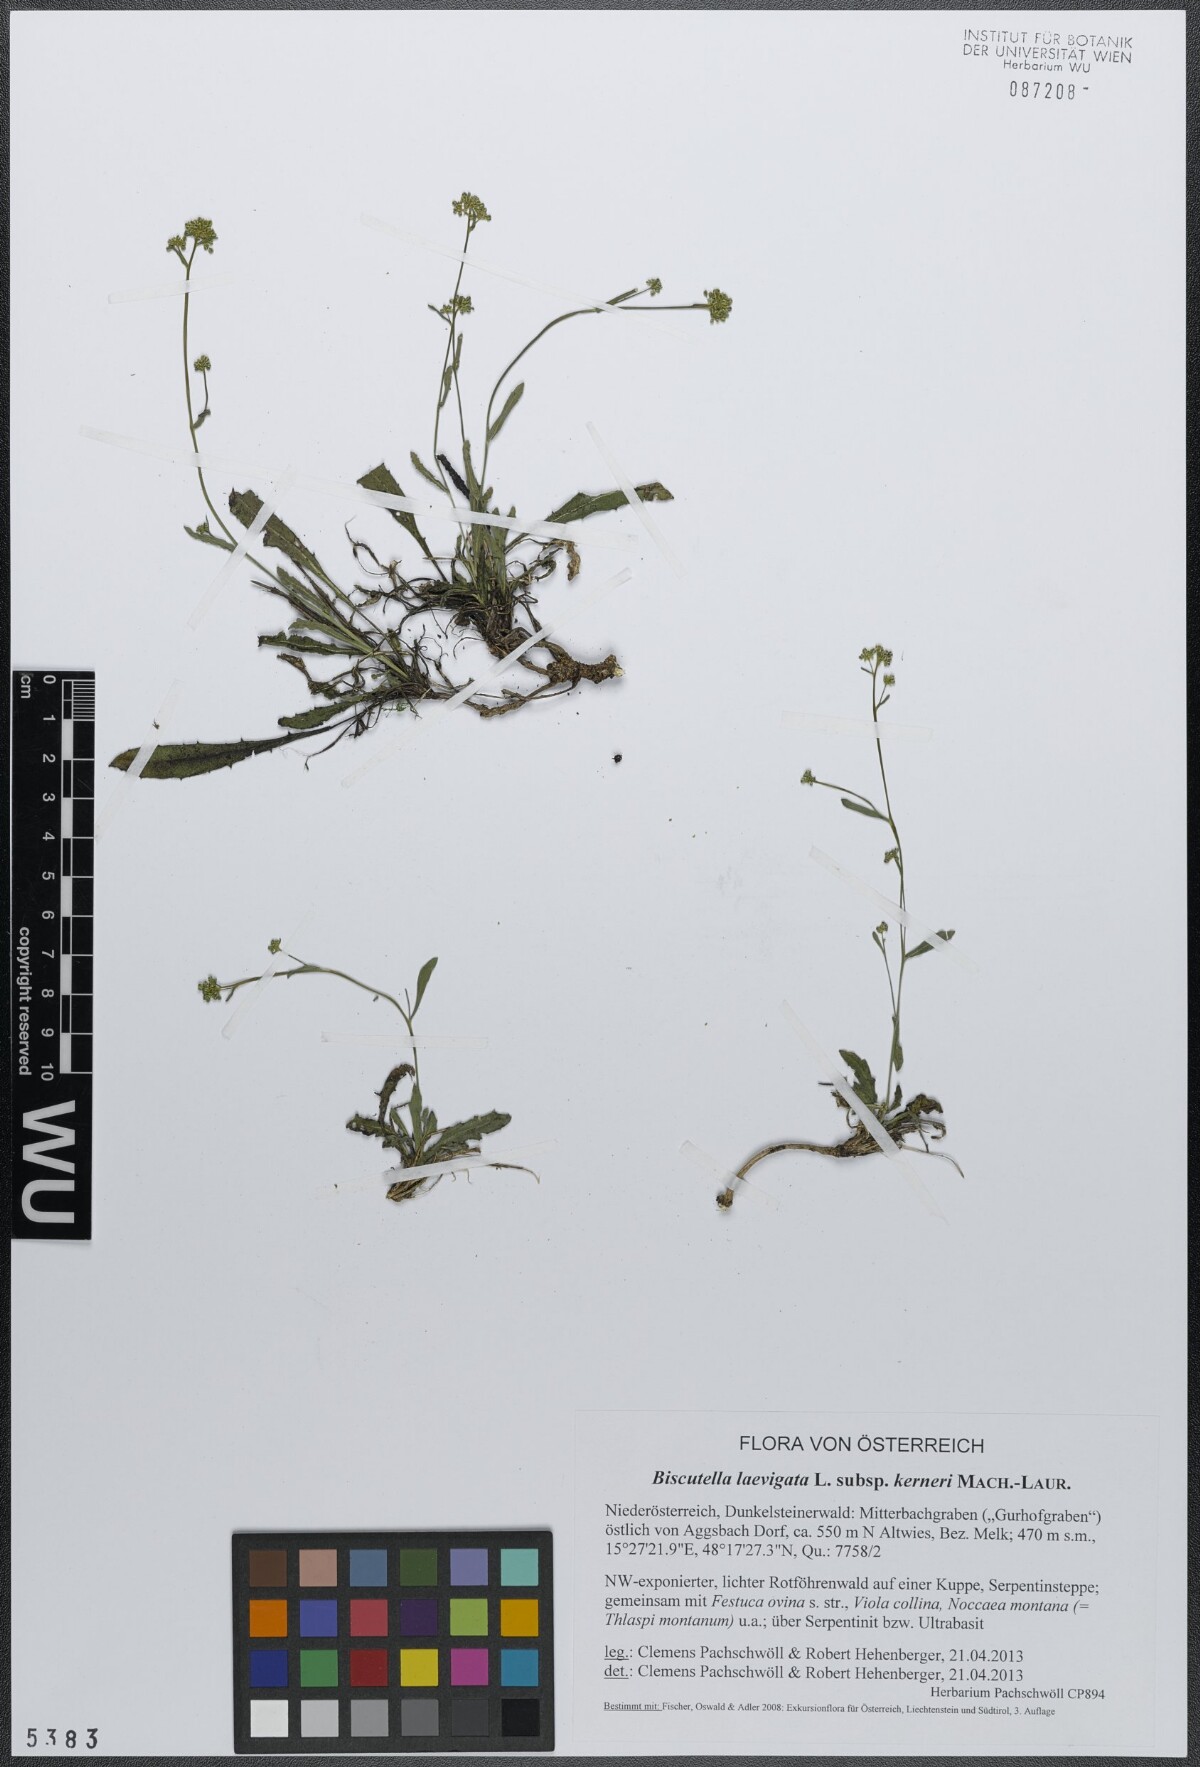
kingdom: Plantae
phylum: Tracheophyta
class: Magnoliopsida
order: Brassicales
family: Brassicaceae
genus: Biscutella
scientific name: Biscutella laevigata
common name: Buckler mustard
